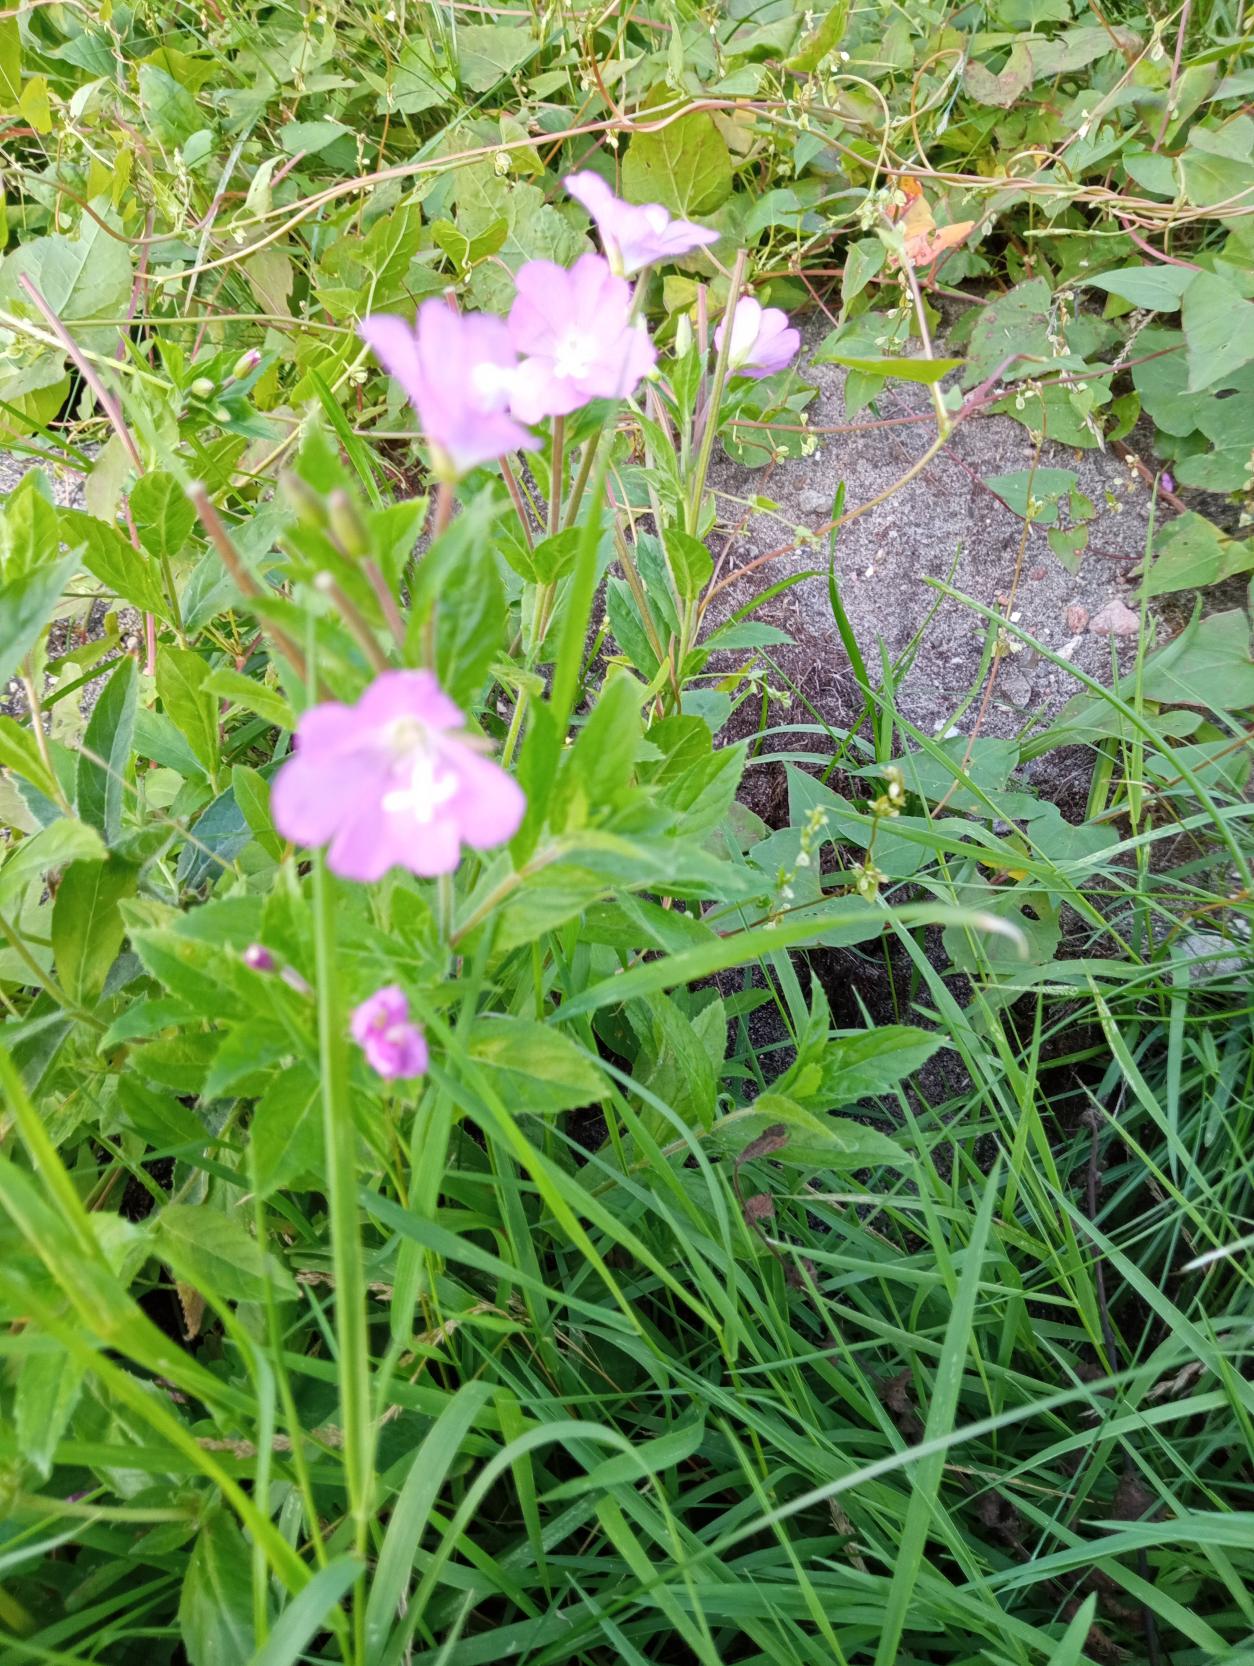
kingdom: Plantae
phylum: Tracheophyta
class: Magnoliopsida
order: Myrtales
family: Onagraceae
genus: Epilobium
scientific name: Epilobium hirsutum
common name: Lådden dueurt
